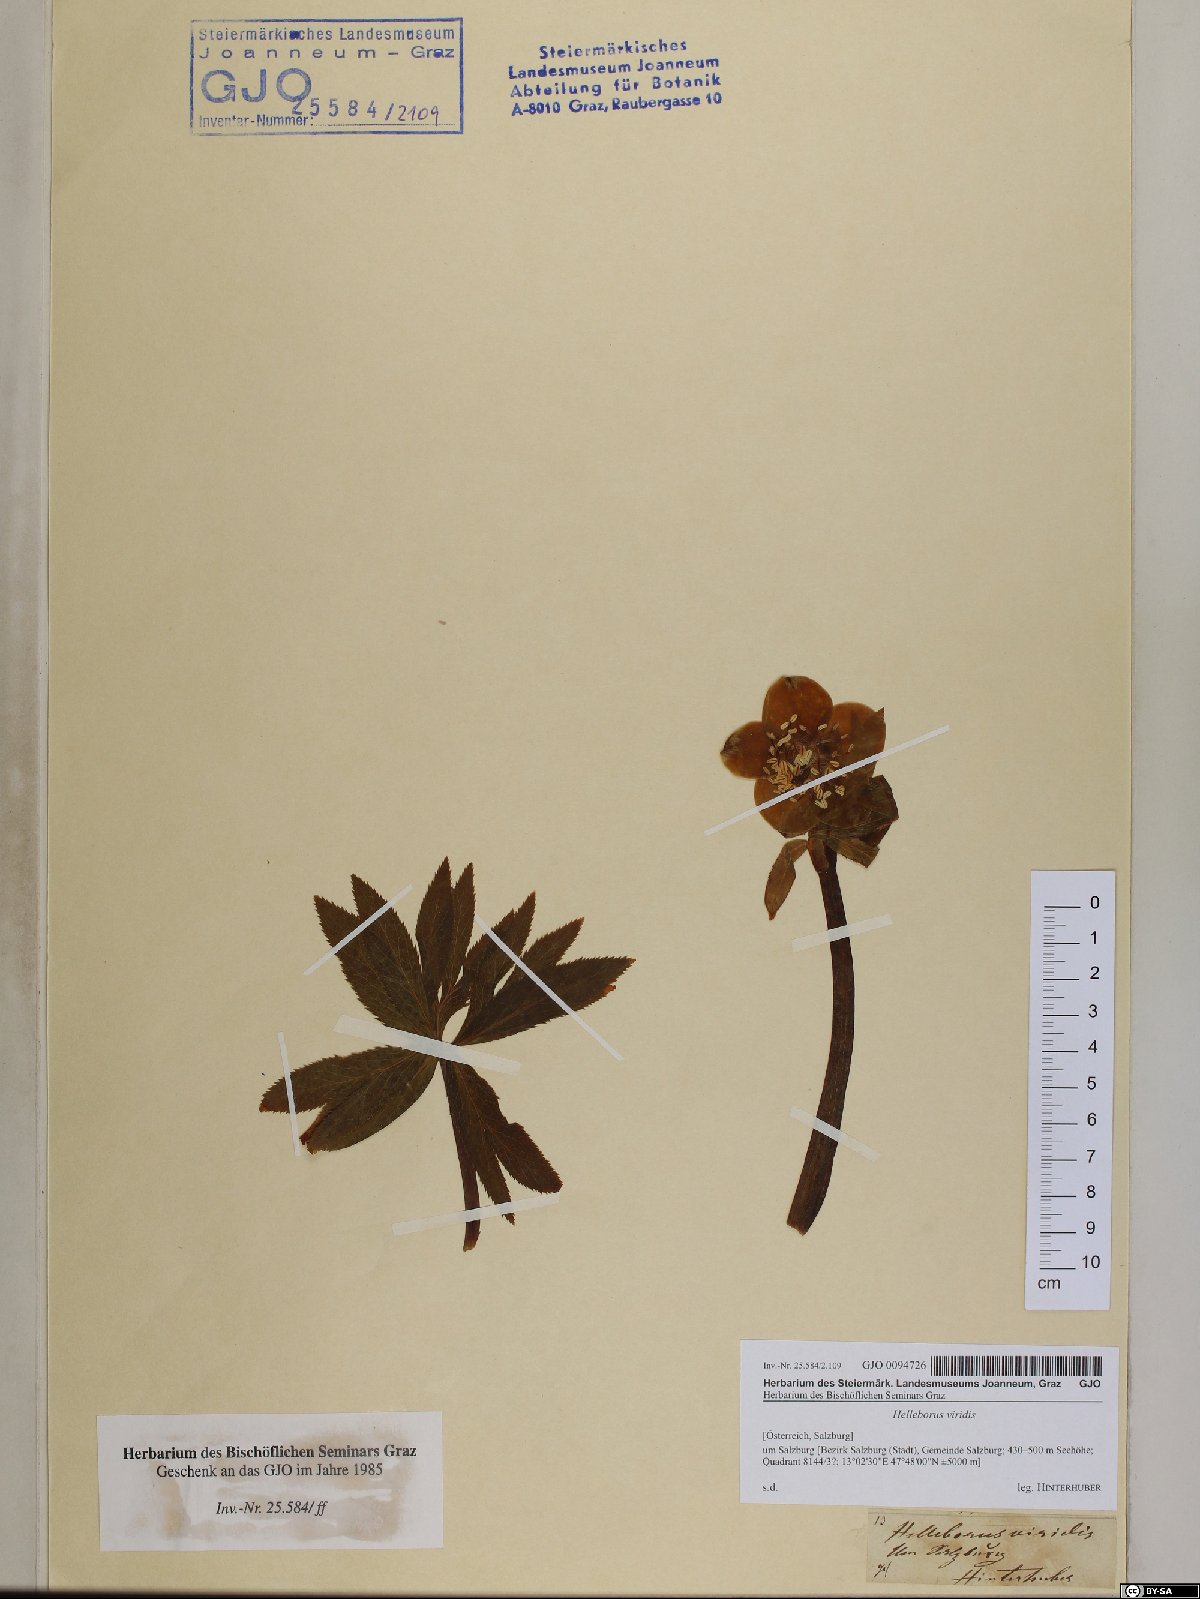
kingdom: Plantae
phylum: Tracheophyta
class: Magnoliopsida
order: Ranunculales
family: Ranunculaceae
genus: Helleborus
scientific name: Helleborus viridis
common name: Green hellebore
